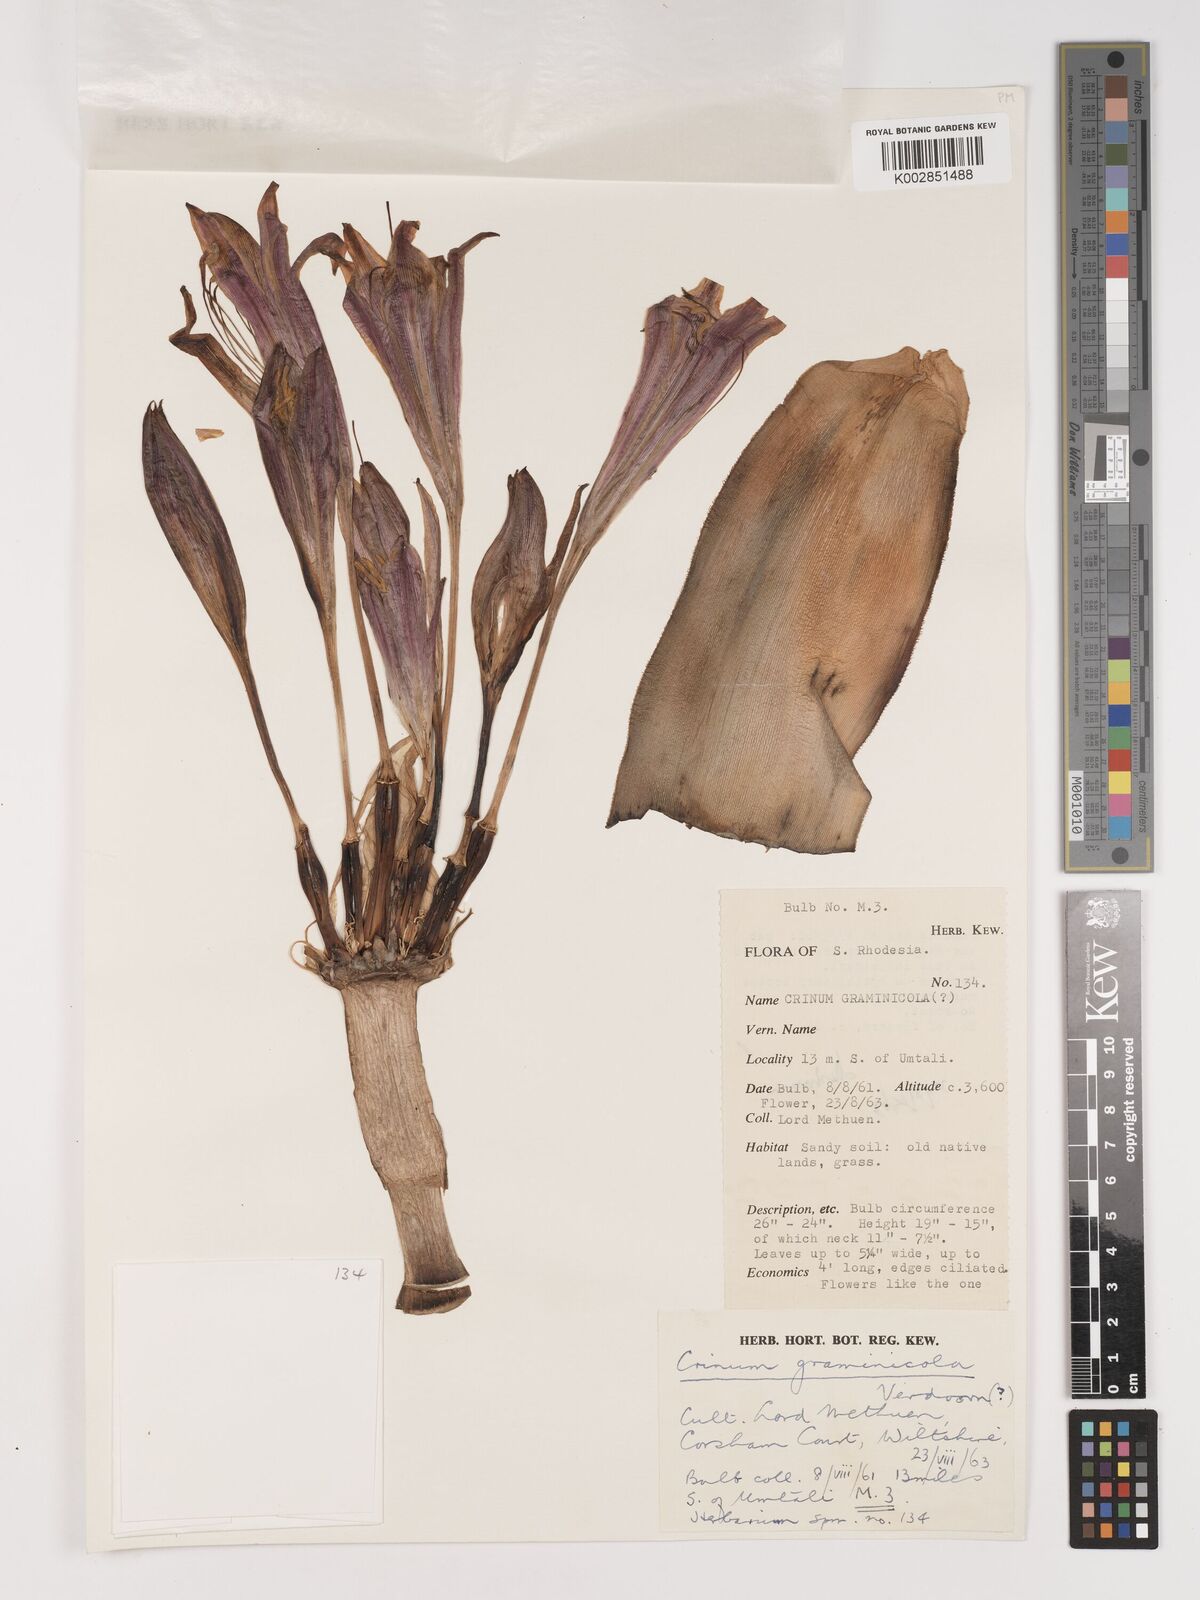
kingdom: Plantae
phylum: Tracheophyta
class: Liliopsida
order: Asparagales
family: Amaryllidaceae
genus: Crinum
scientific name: Crinum stuhlmannii
